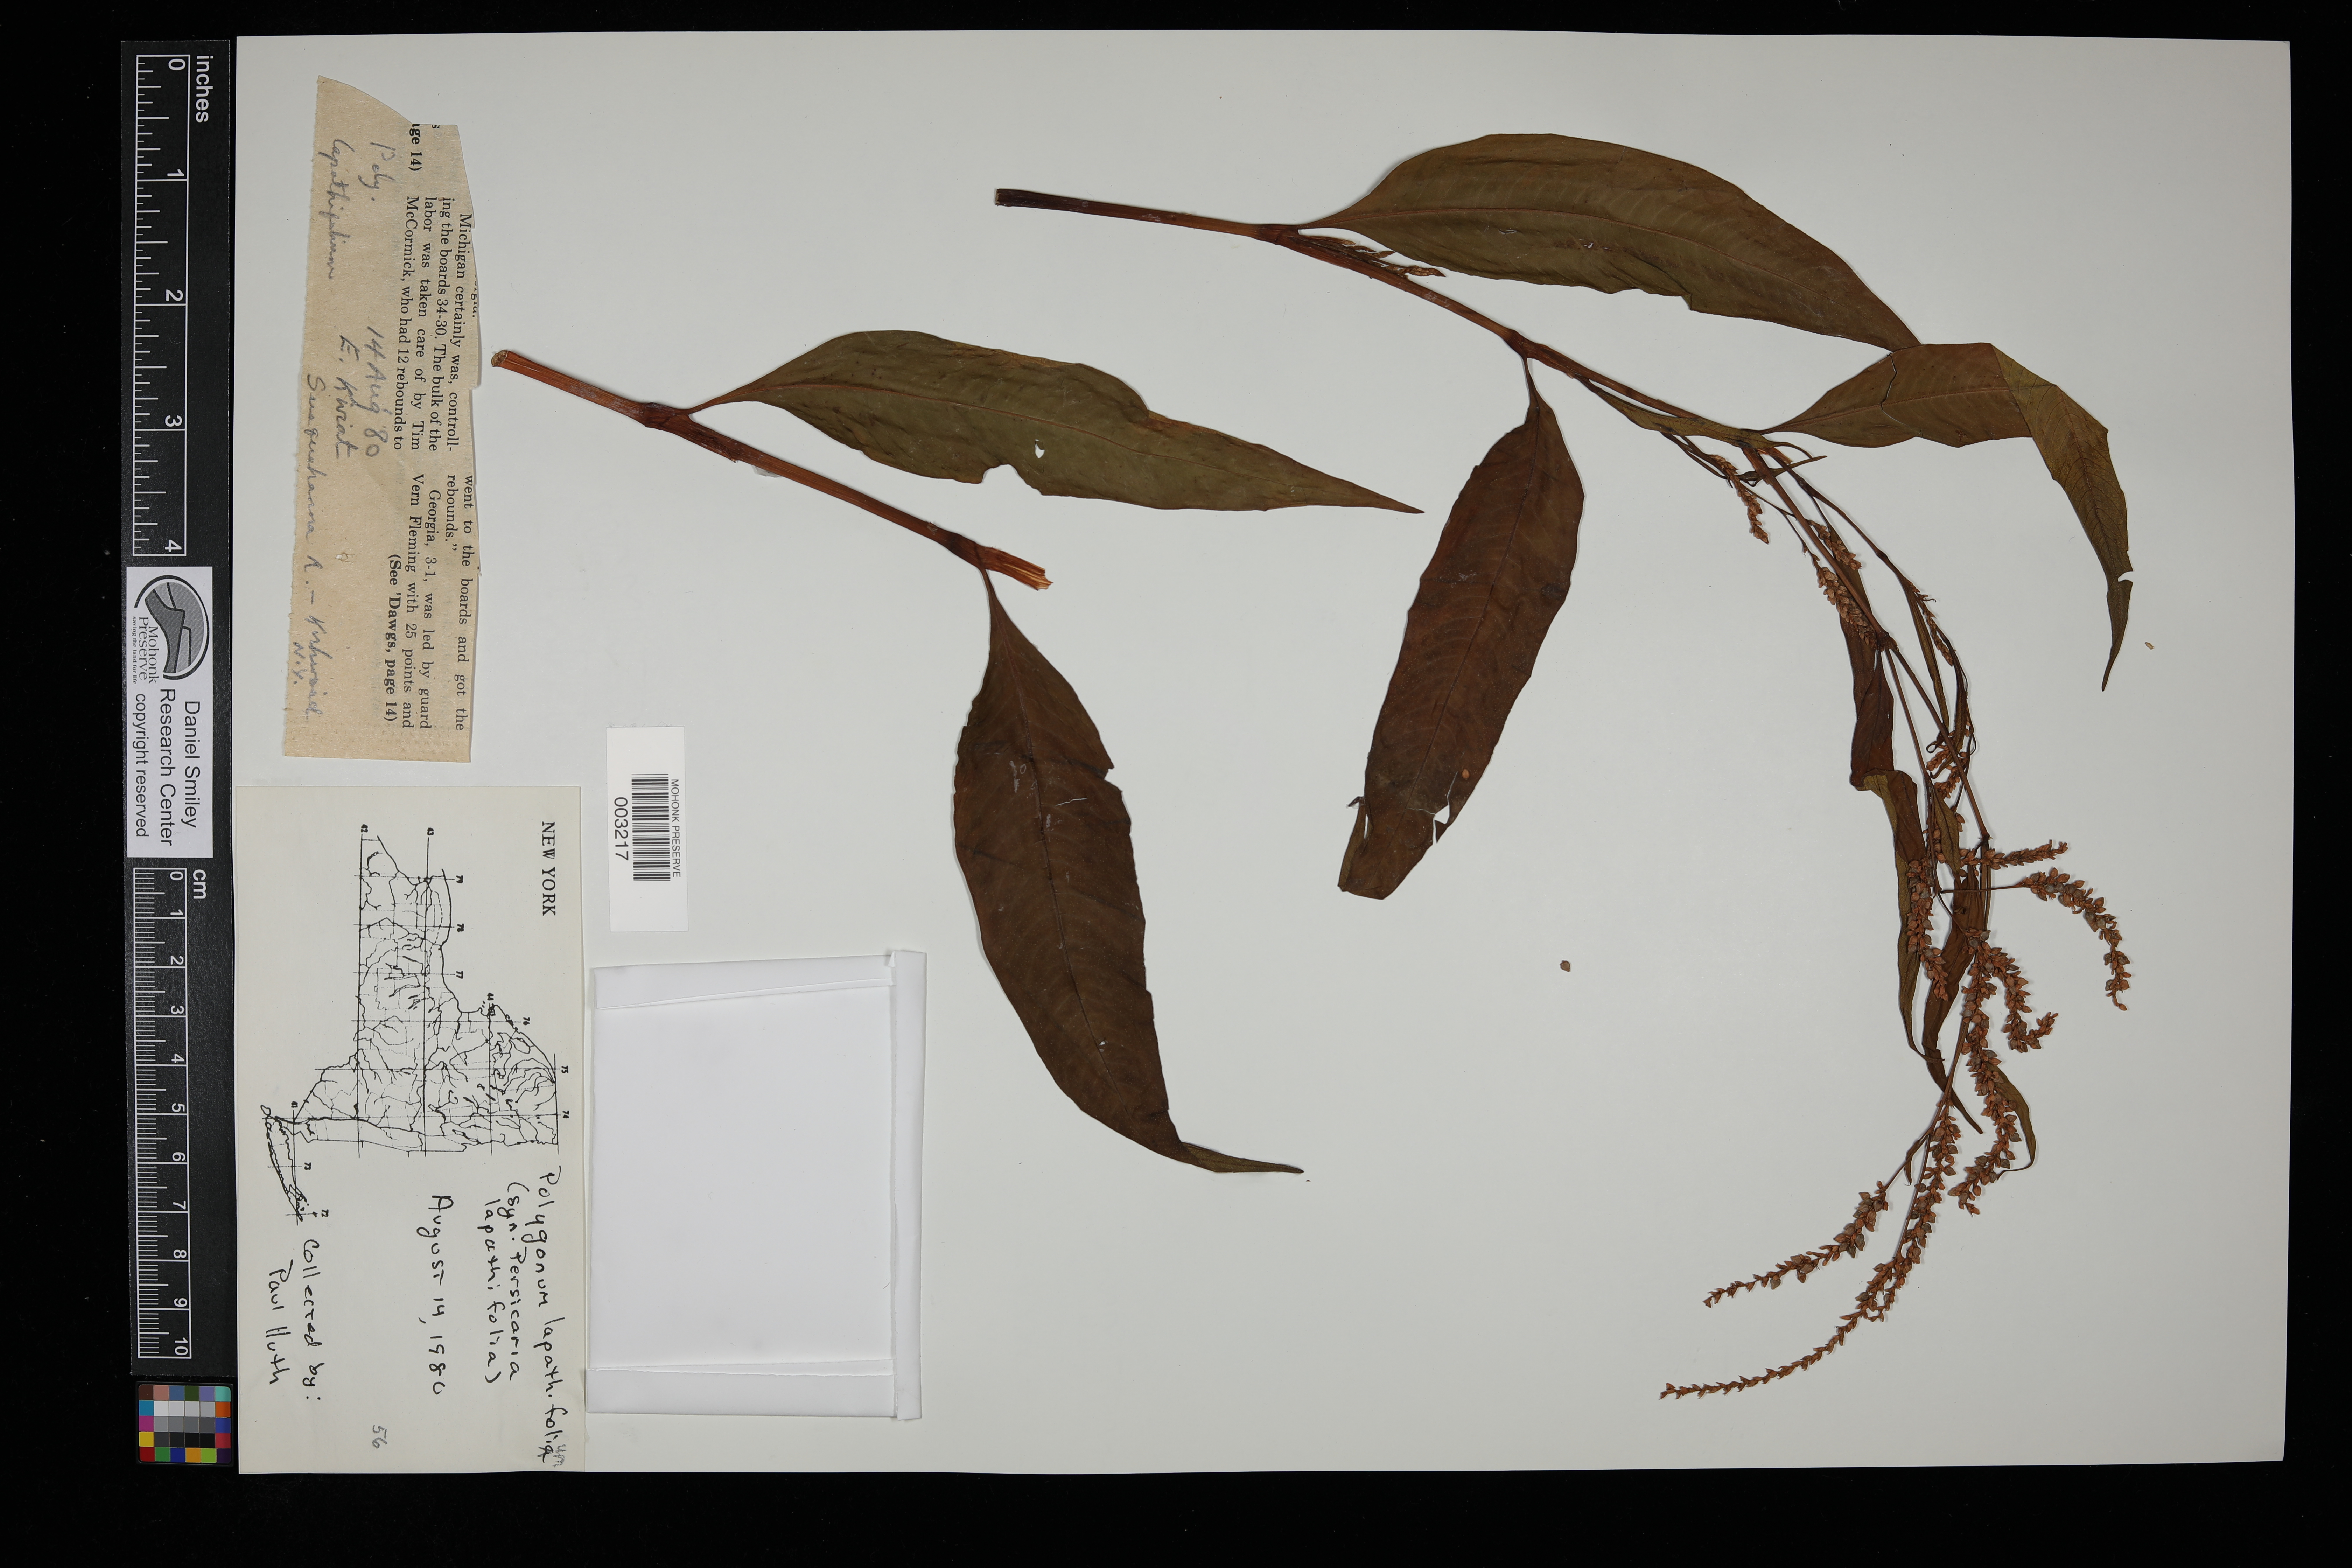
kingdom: Plantae
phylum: Tracheophyta
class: Magnoliopsida
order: Caryophyllales
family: Polygonaceae
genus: Persicaria
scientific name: Persicaria lapathifolia
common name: Curlytop knotweed
